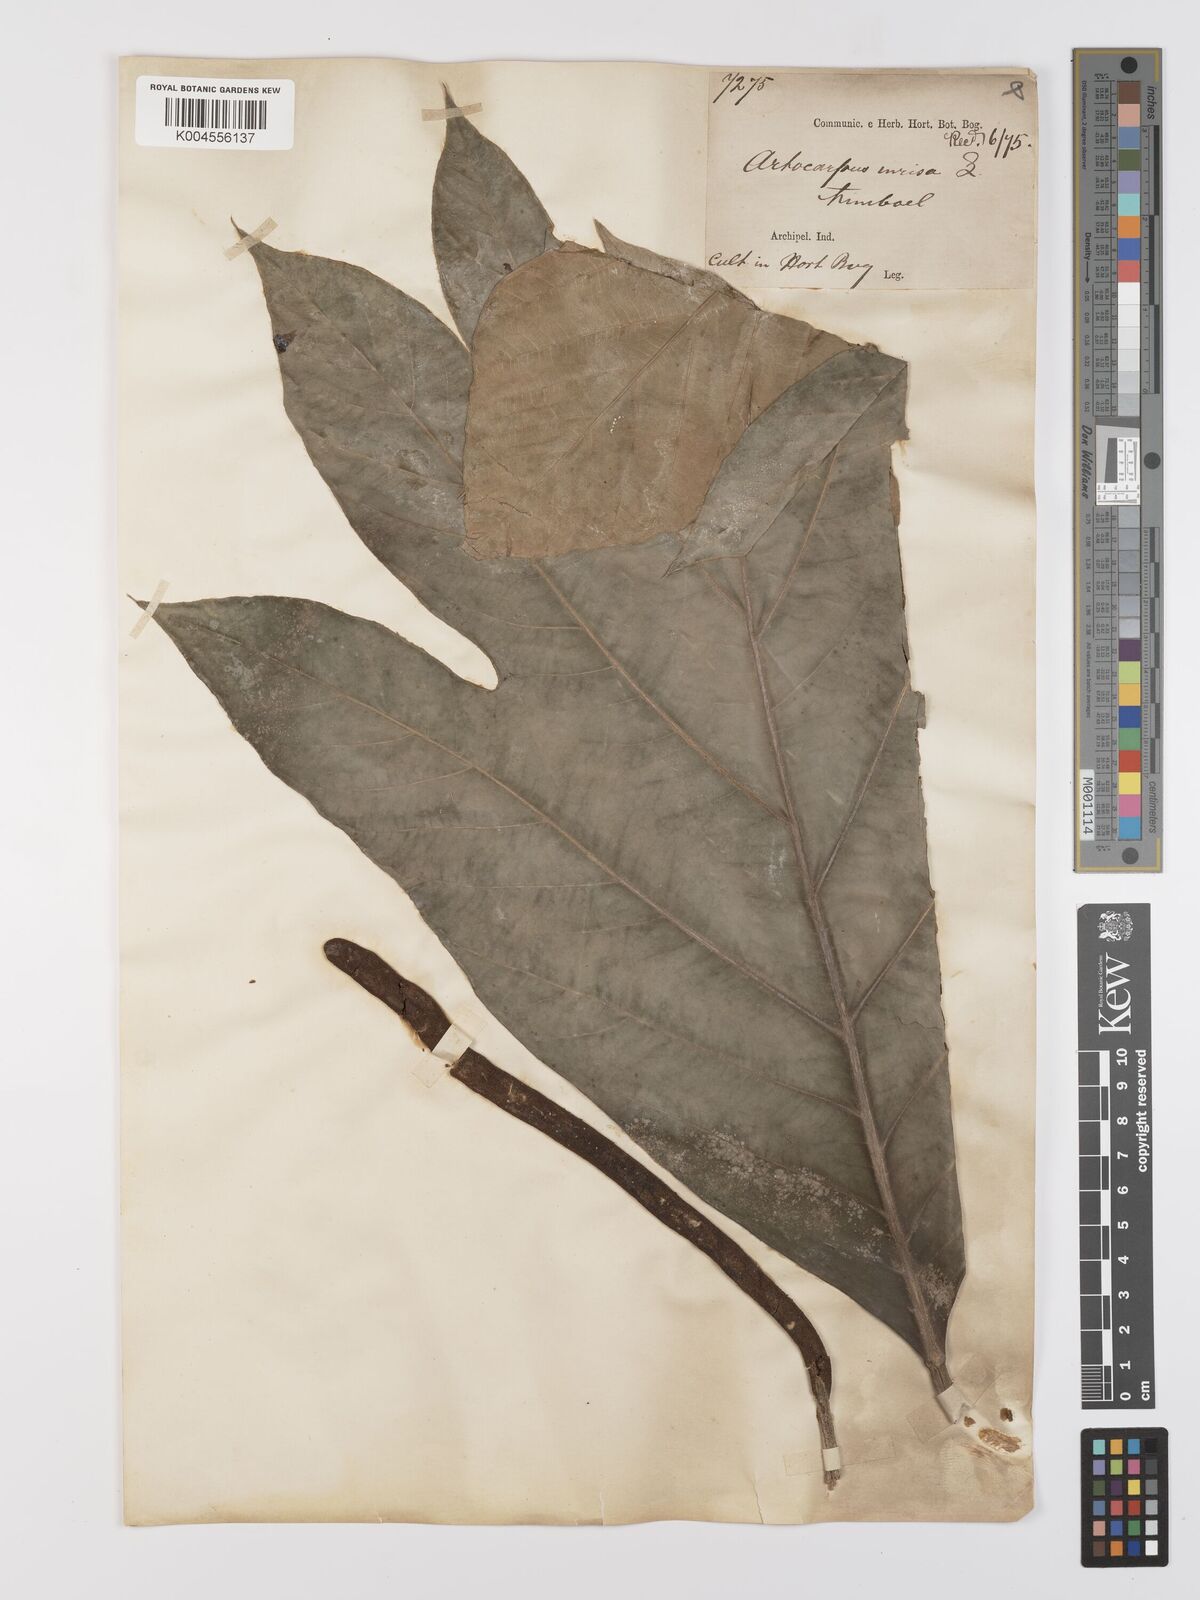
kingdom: Plantae
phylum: Tracheophyta
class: Magnoliopsida
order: Rosales
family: Moraceae
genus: Artocarpus
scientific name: Artocarpus altilis
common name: Breadfruit
